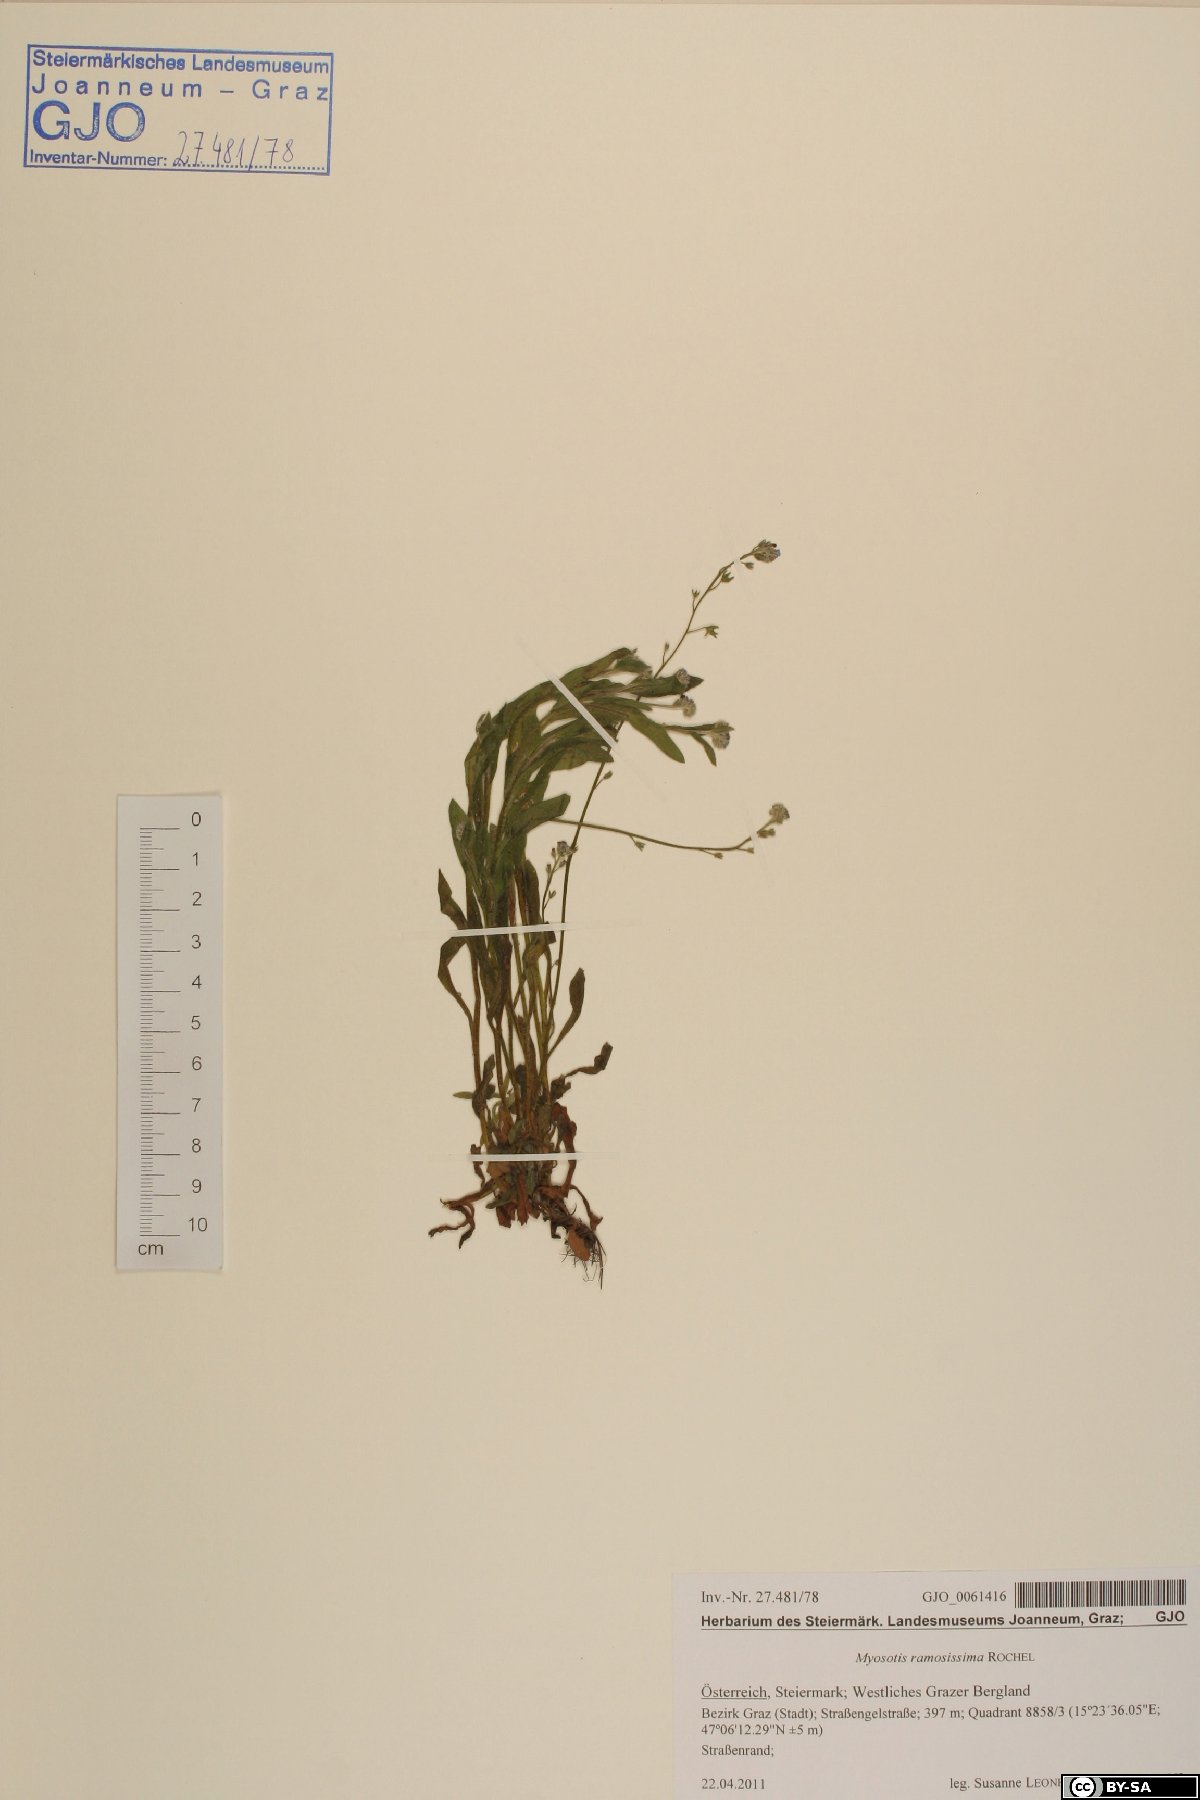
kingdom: Plantae
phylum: Tracheophyta
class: Magnoliopsida
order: Boraginales
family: Boraginaceae
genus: Myosotis
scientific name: Myosotis ramosissima
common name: Early forget-me-not
